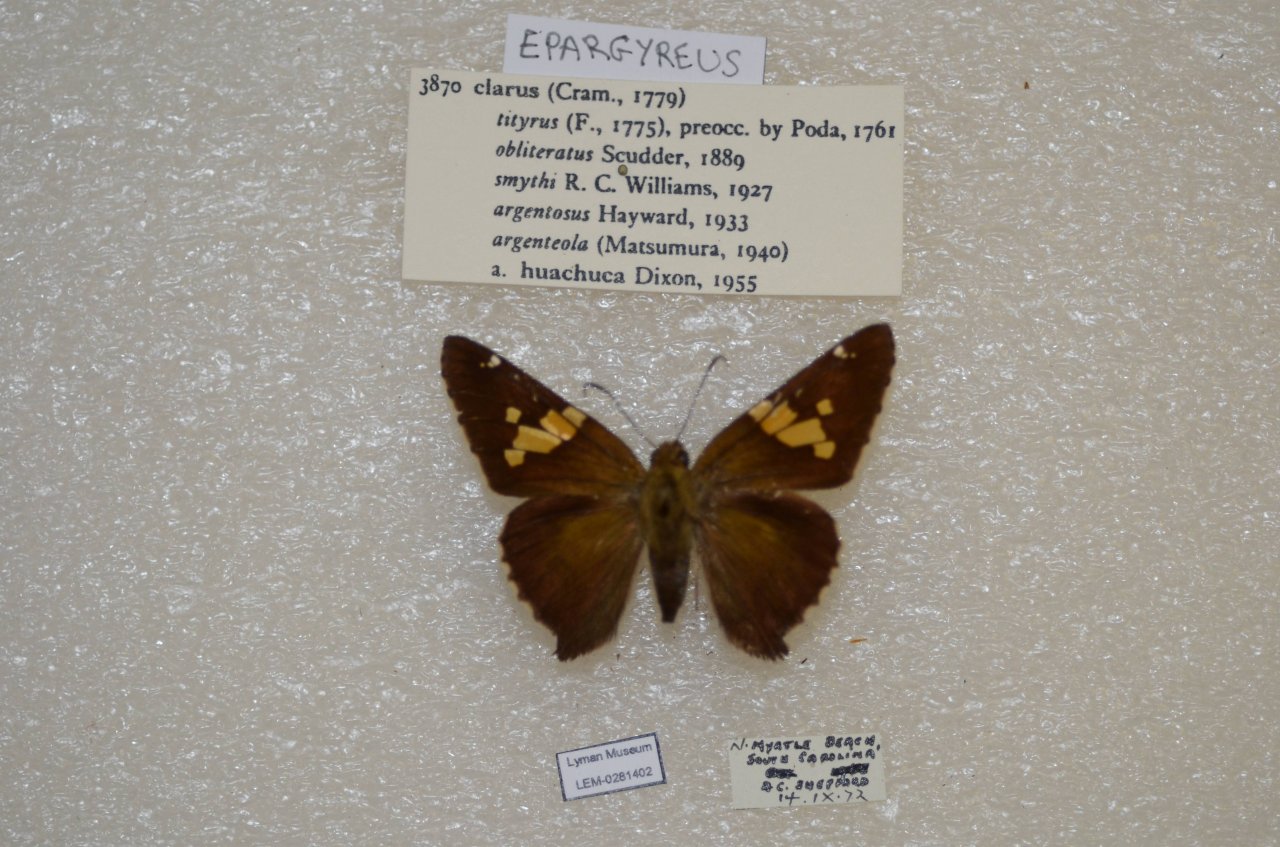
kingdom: Animalia
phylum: Arthropoda
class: Insecta
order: Lepidoptera
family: Hesperiidae
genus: Epargyreus
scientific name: Epargyreus clarus
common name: Silver-spotted Skipper
